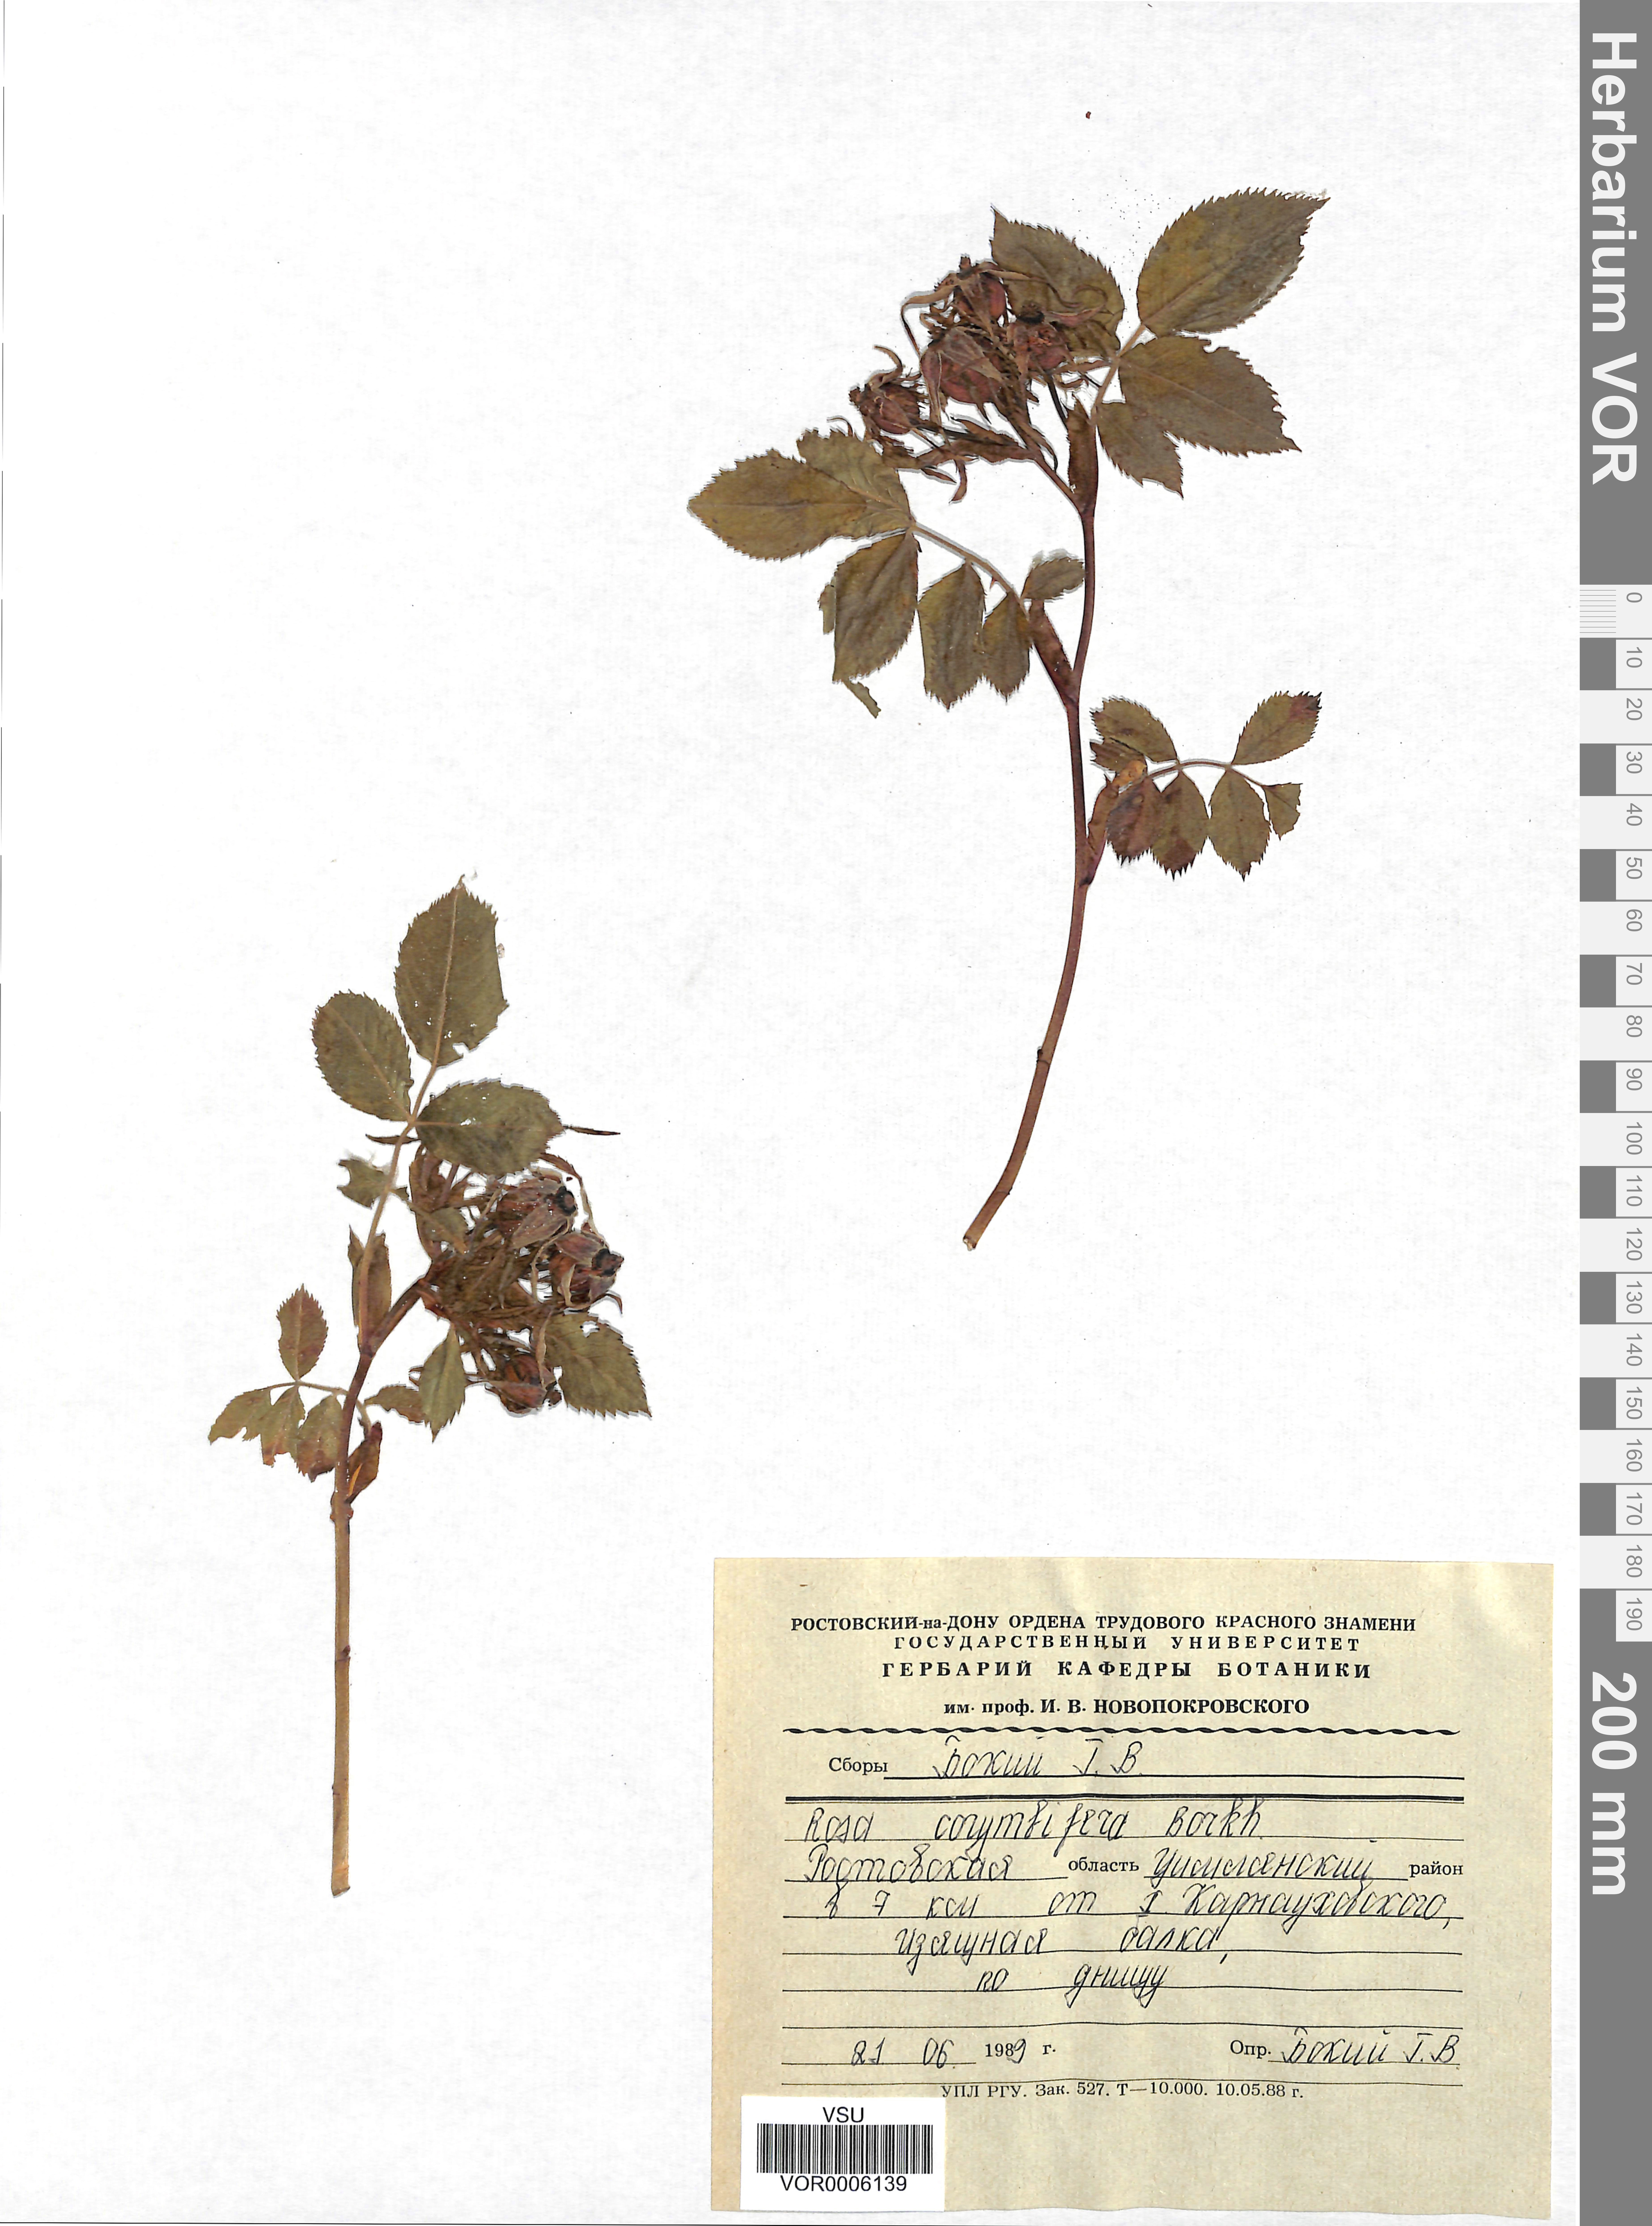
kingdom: Plantae
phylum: Tracheophyta
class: Magnoliopsida
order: Rosales
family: Rosaceae
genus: Rosa
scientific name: Rosa corymbifera
